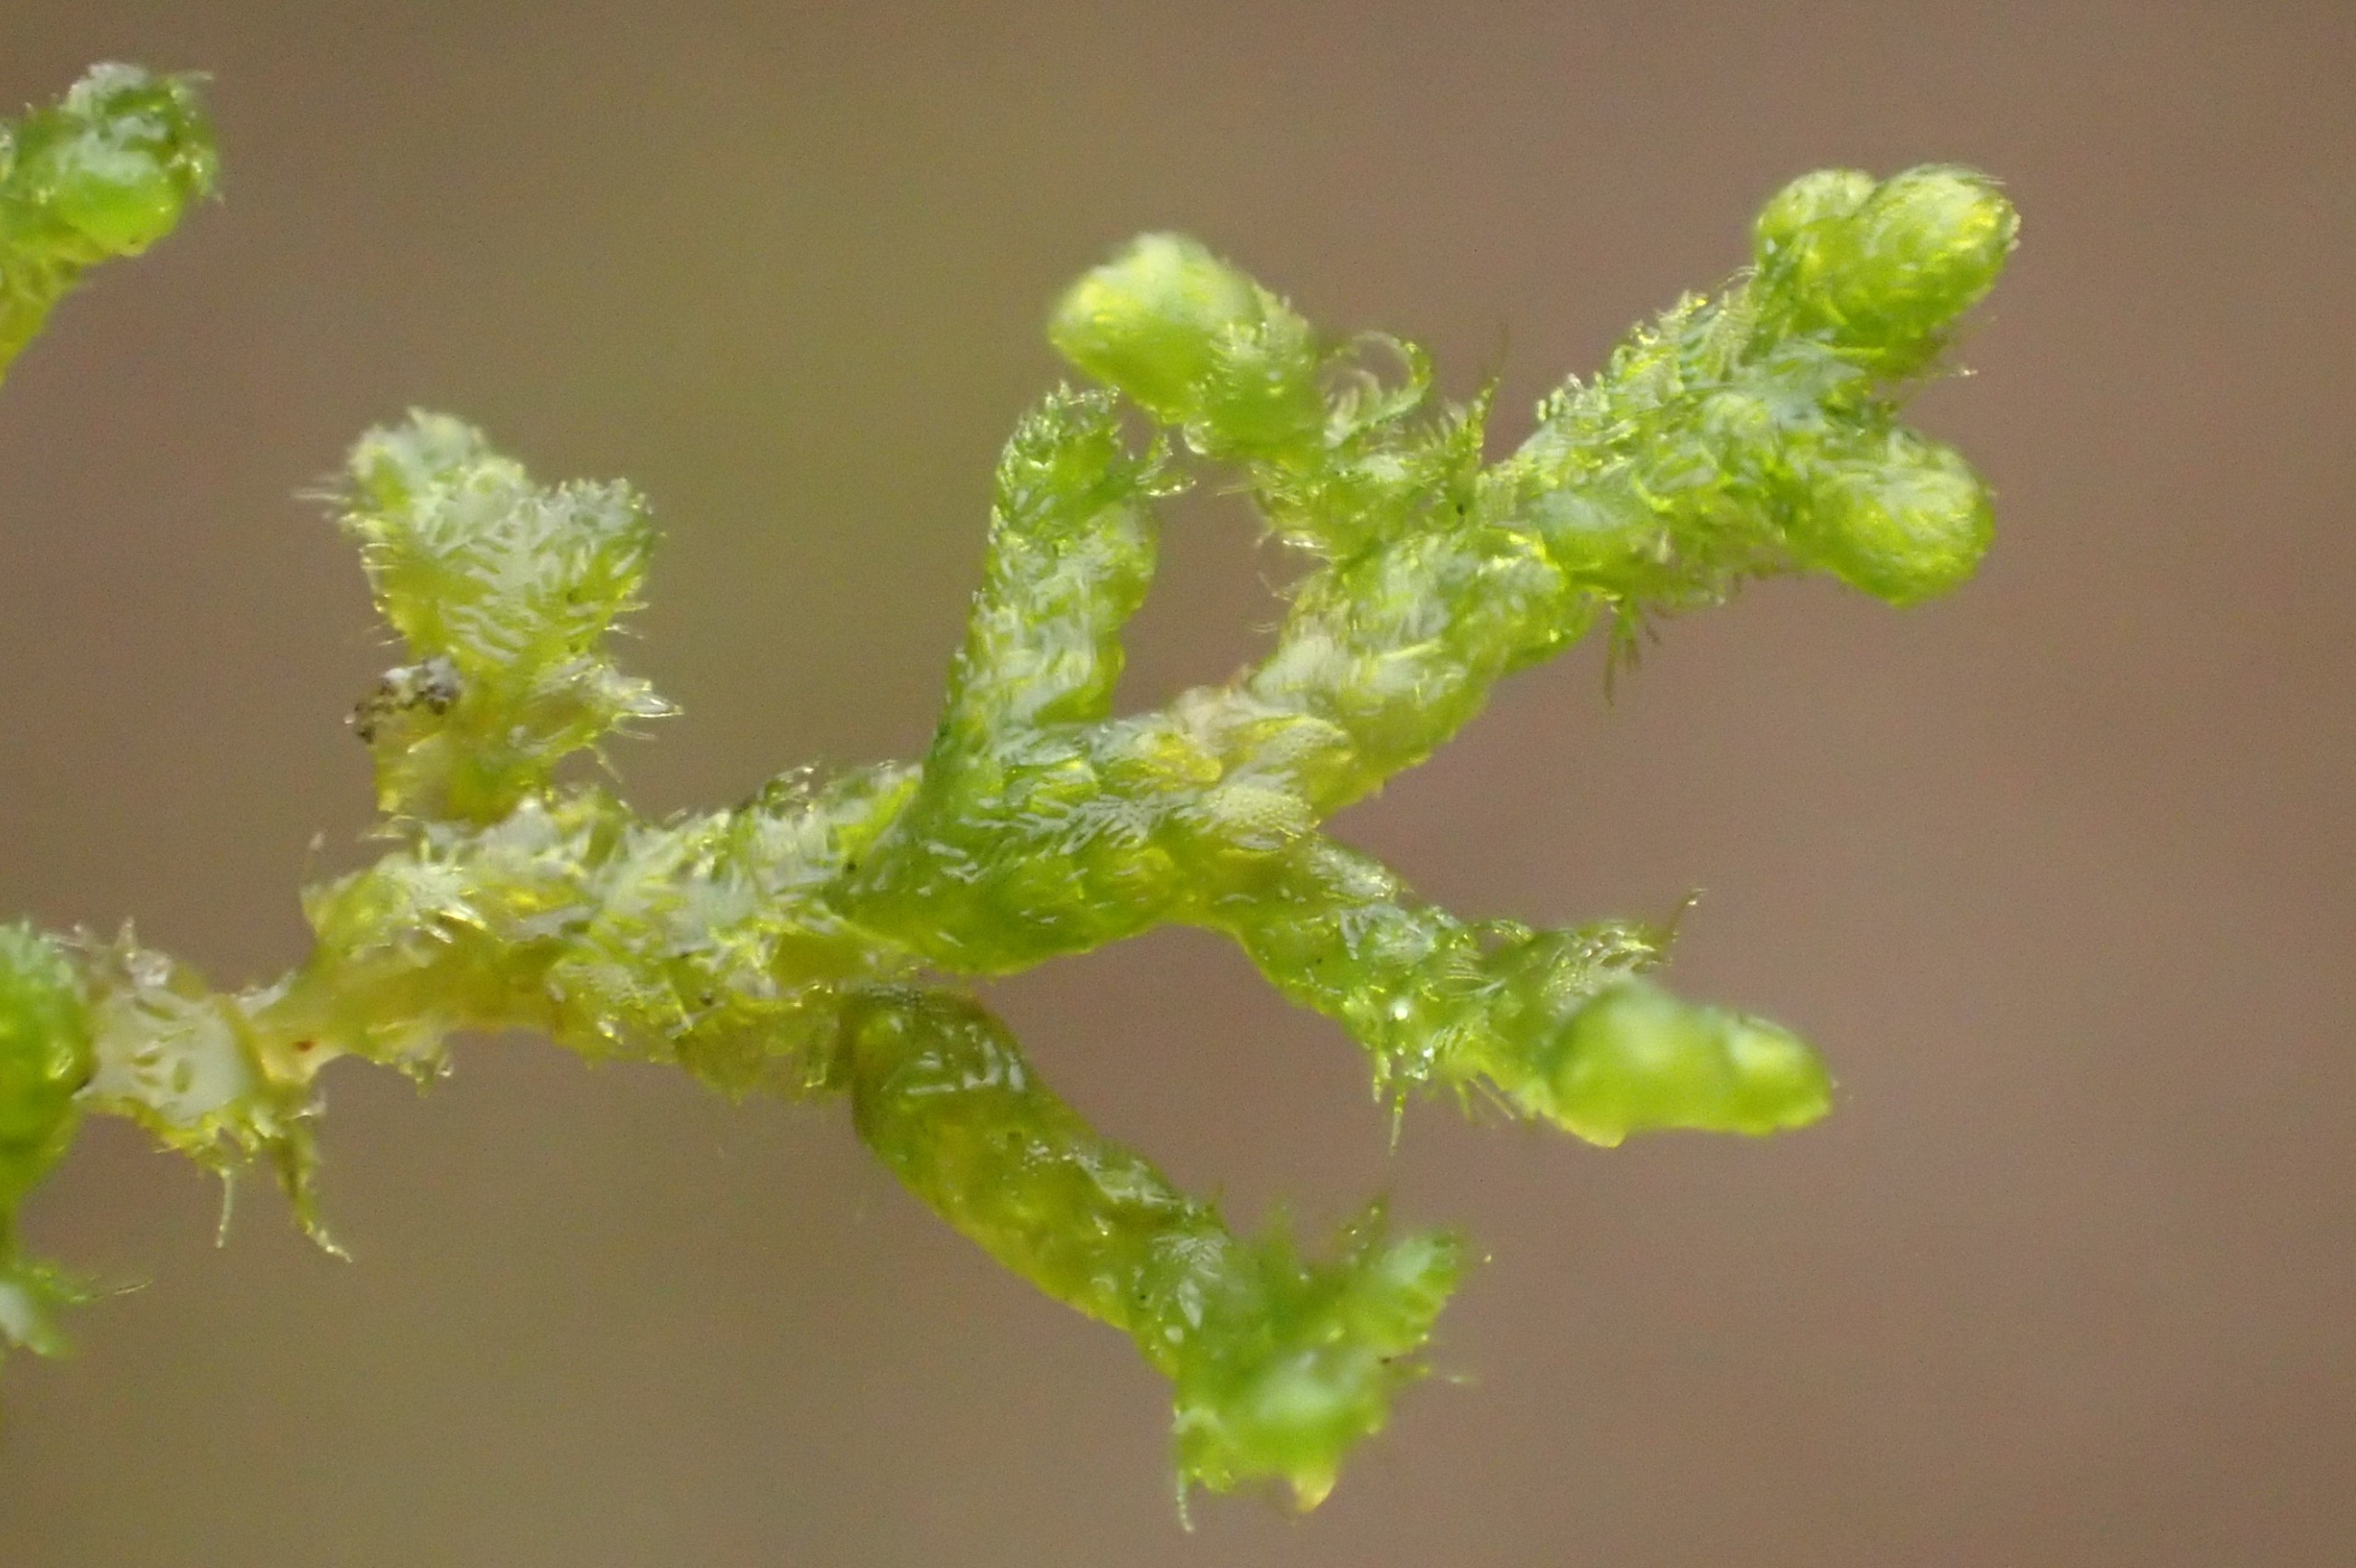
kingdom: Plantae
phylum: Marchantiophyta
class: Jungermanniopsida
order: Ptilidiales
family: Ptilidiaceae
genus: Ptilidium
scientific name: Ptilidium pulcherrimum
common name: Stub-frynsemos
